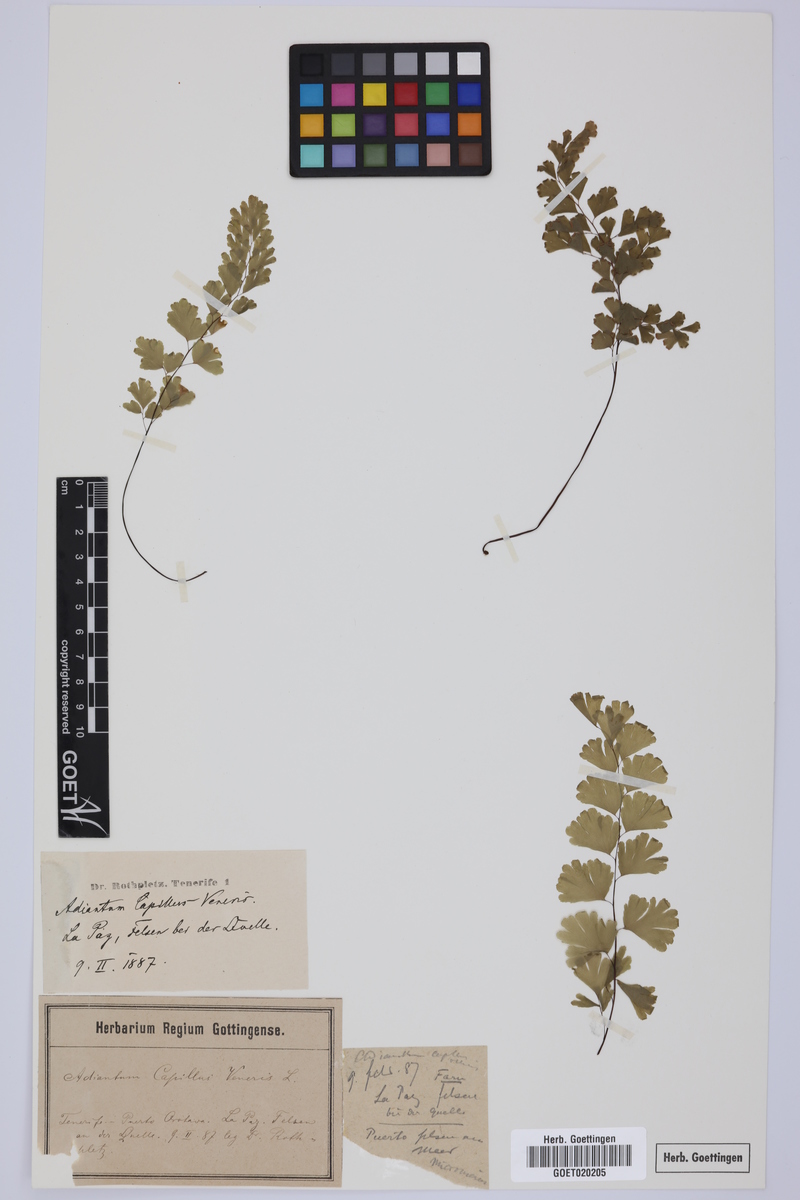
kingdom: Plantae
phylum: Tracheophyta
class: Polypodiopsida
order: Polypodiales
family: Pteridaceae
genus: Adiantum
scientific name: Adiantum capillus-veneris
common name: Maidenhair fern
